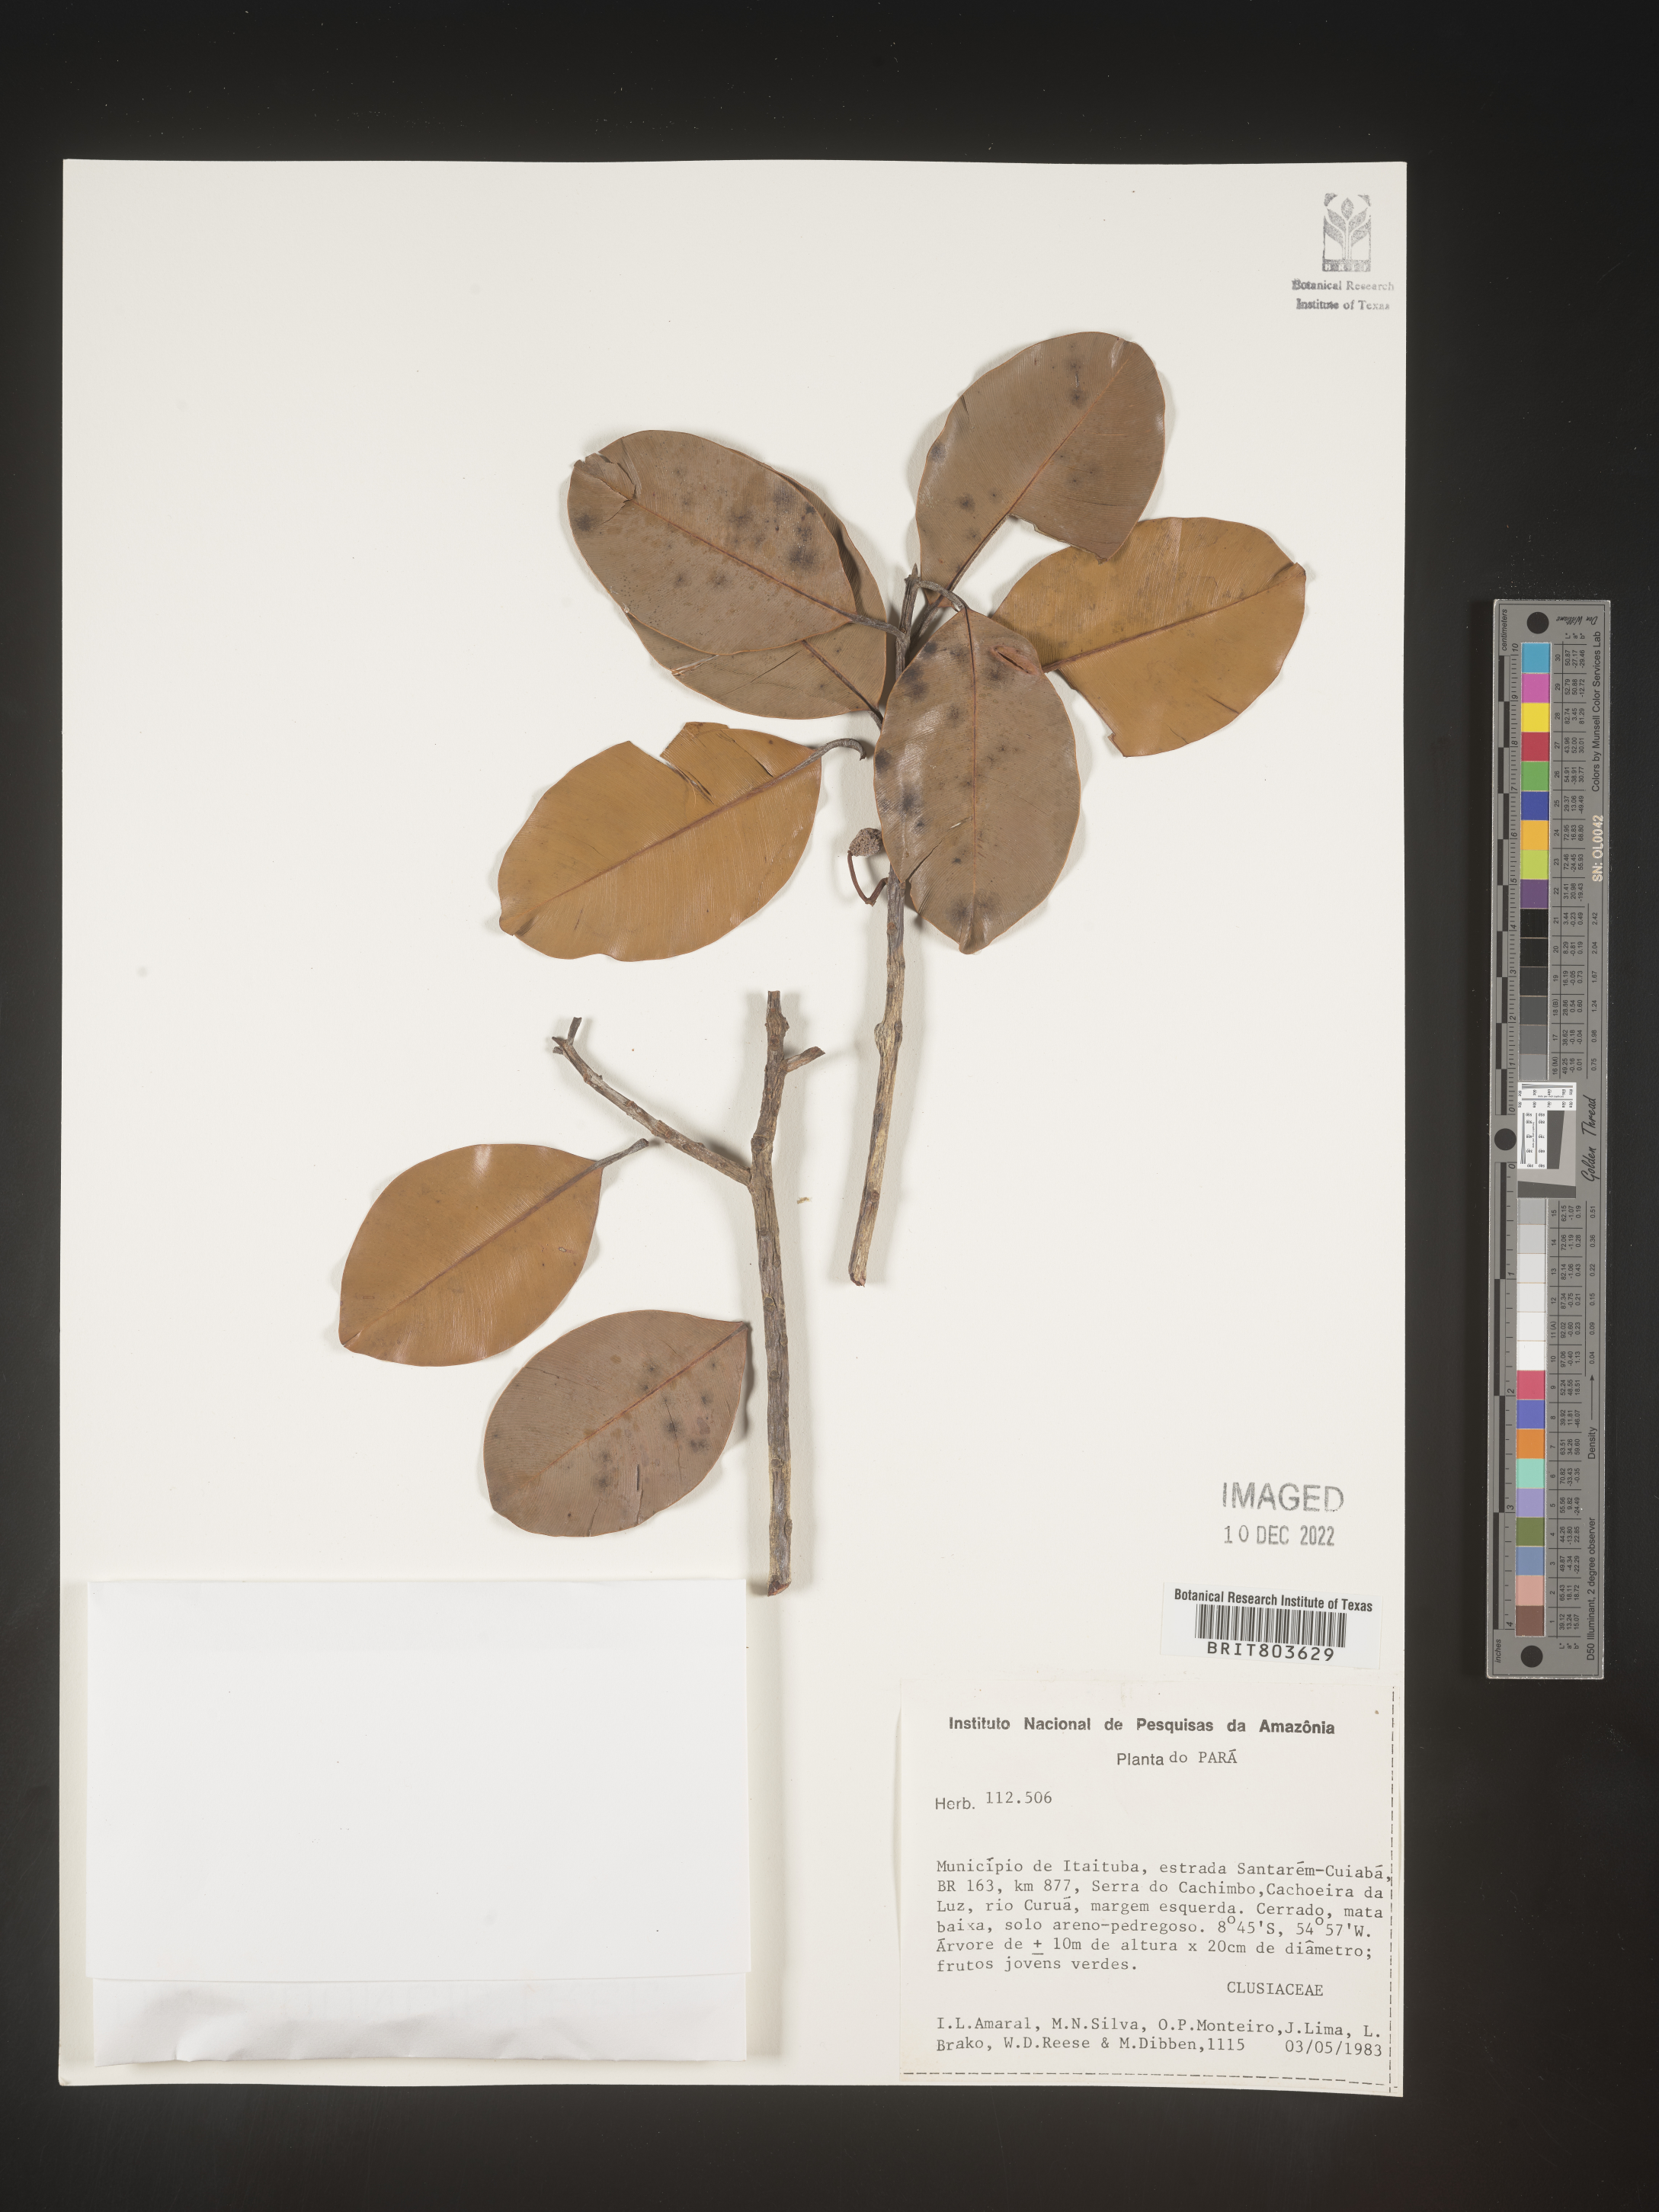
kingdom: Plantae
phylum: Tracheophyta
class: Magnoliopsida
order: Malpighiales
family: Clusiaceae
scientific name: Clusiaceae
